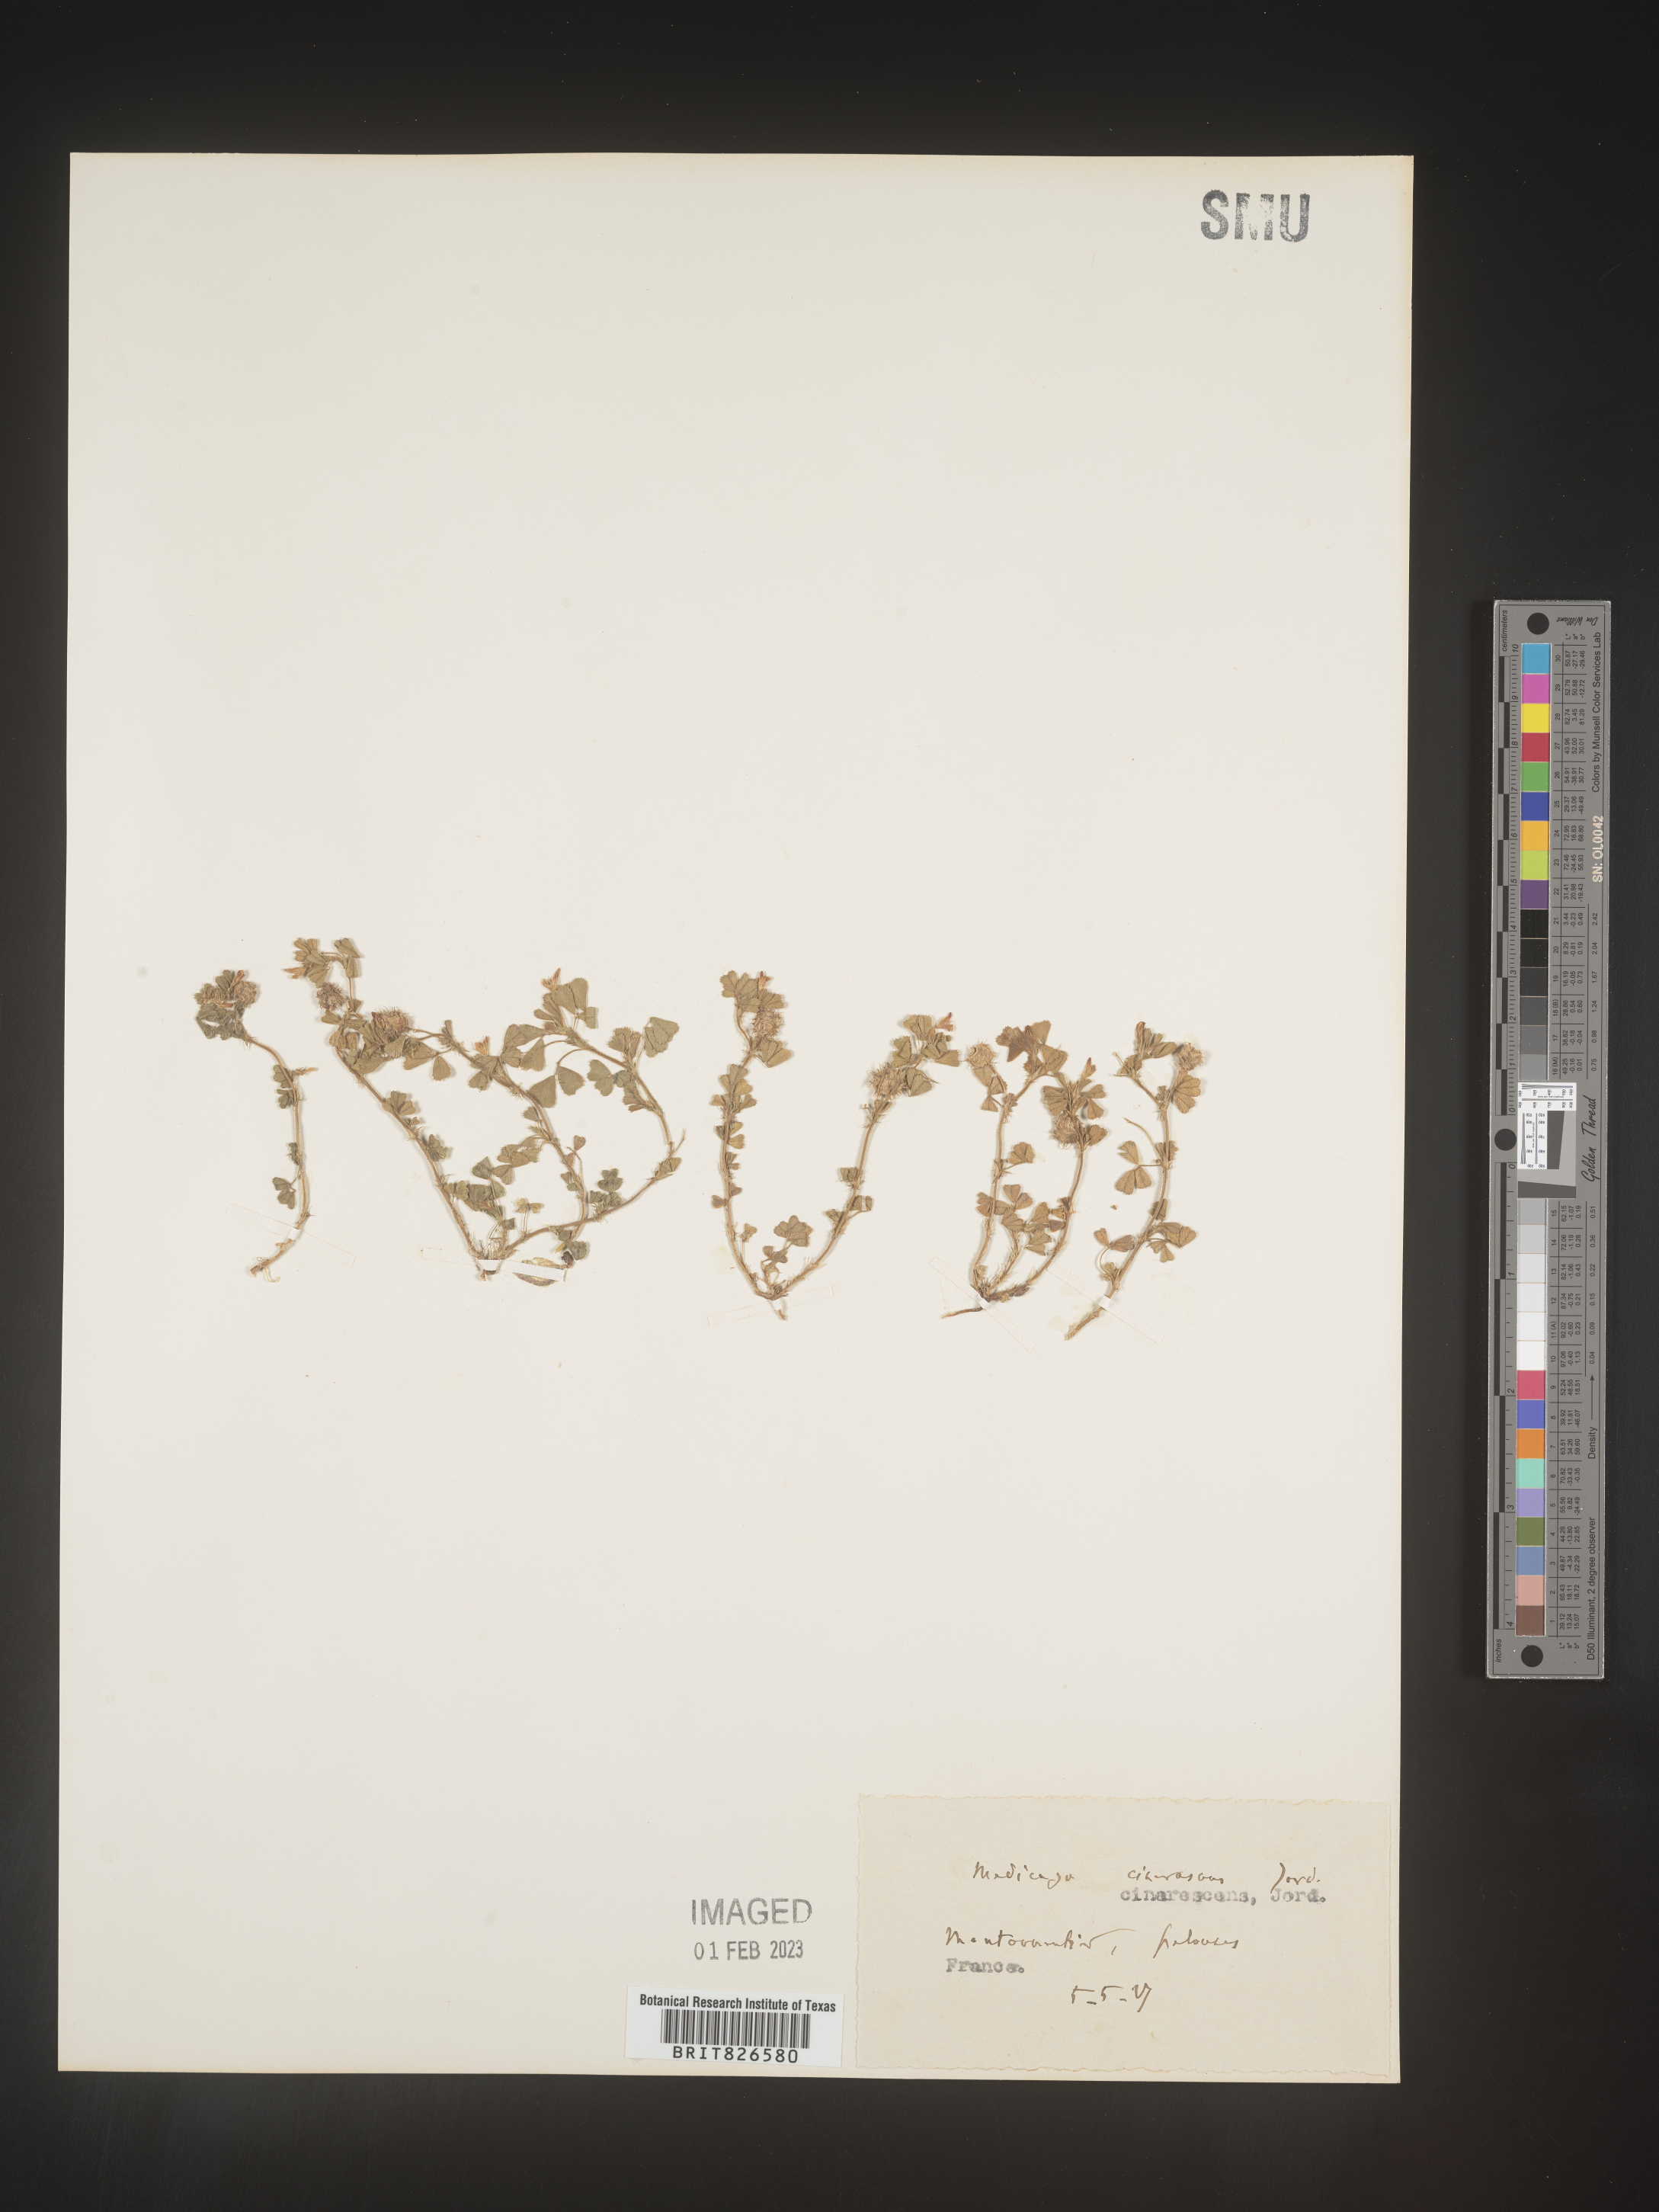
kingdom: Plantae
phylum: Tracheophyta
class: Magnoliopsida
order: Fabales
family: Fabaceae
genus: Medicago
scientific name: Medicago
